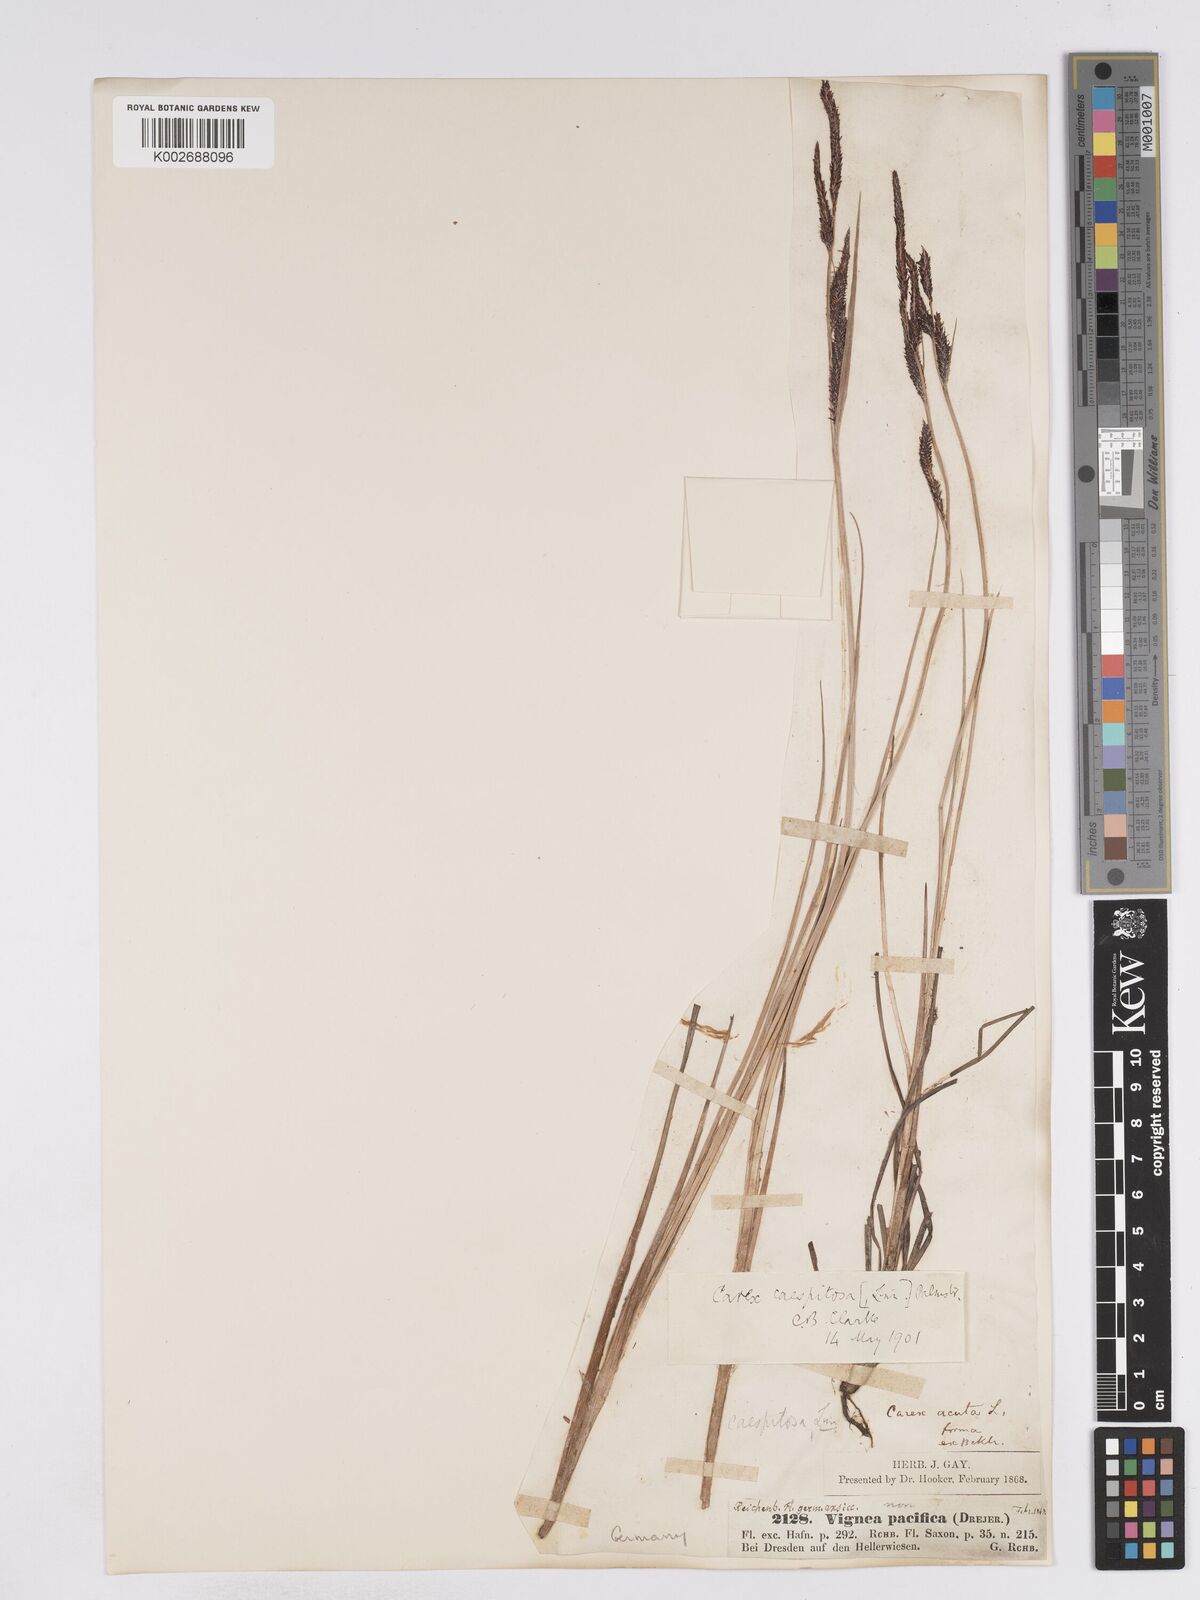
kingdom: Plantae
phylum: Tracheophyta
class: Liliopsida
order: Poales
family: Cyperaceae
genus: Carex
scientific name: Carex
